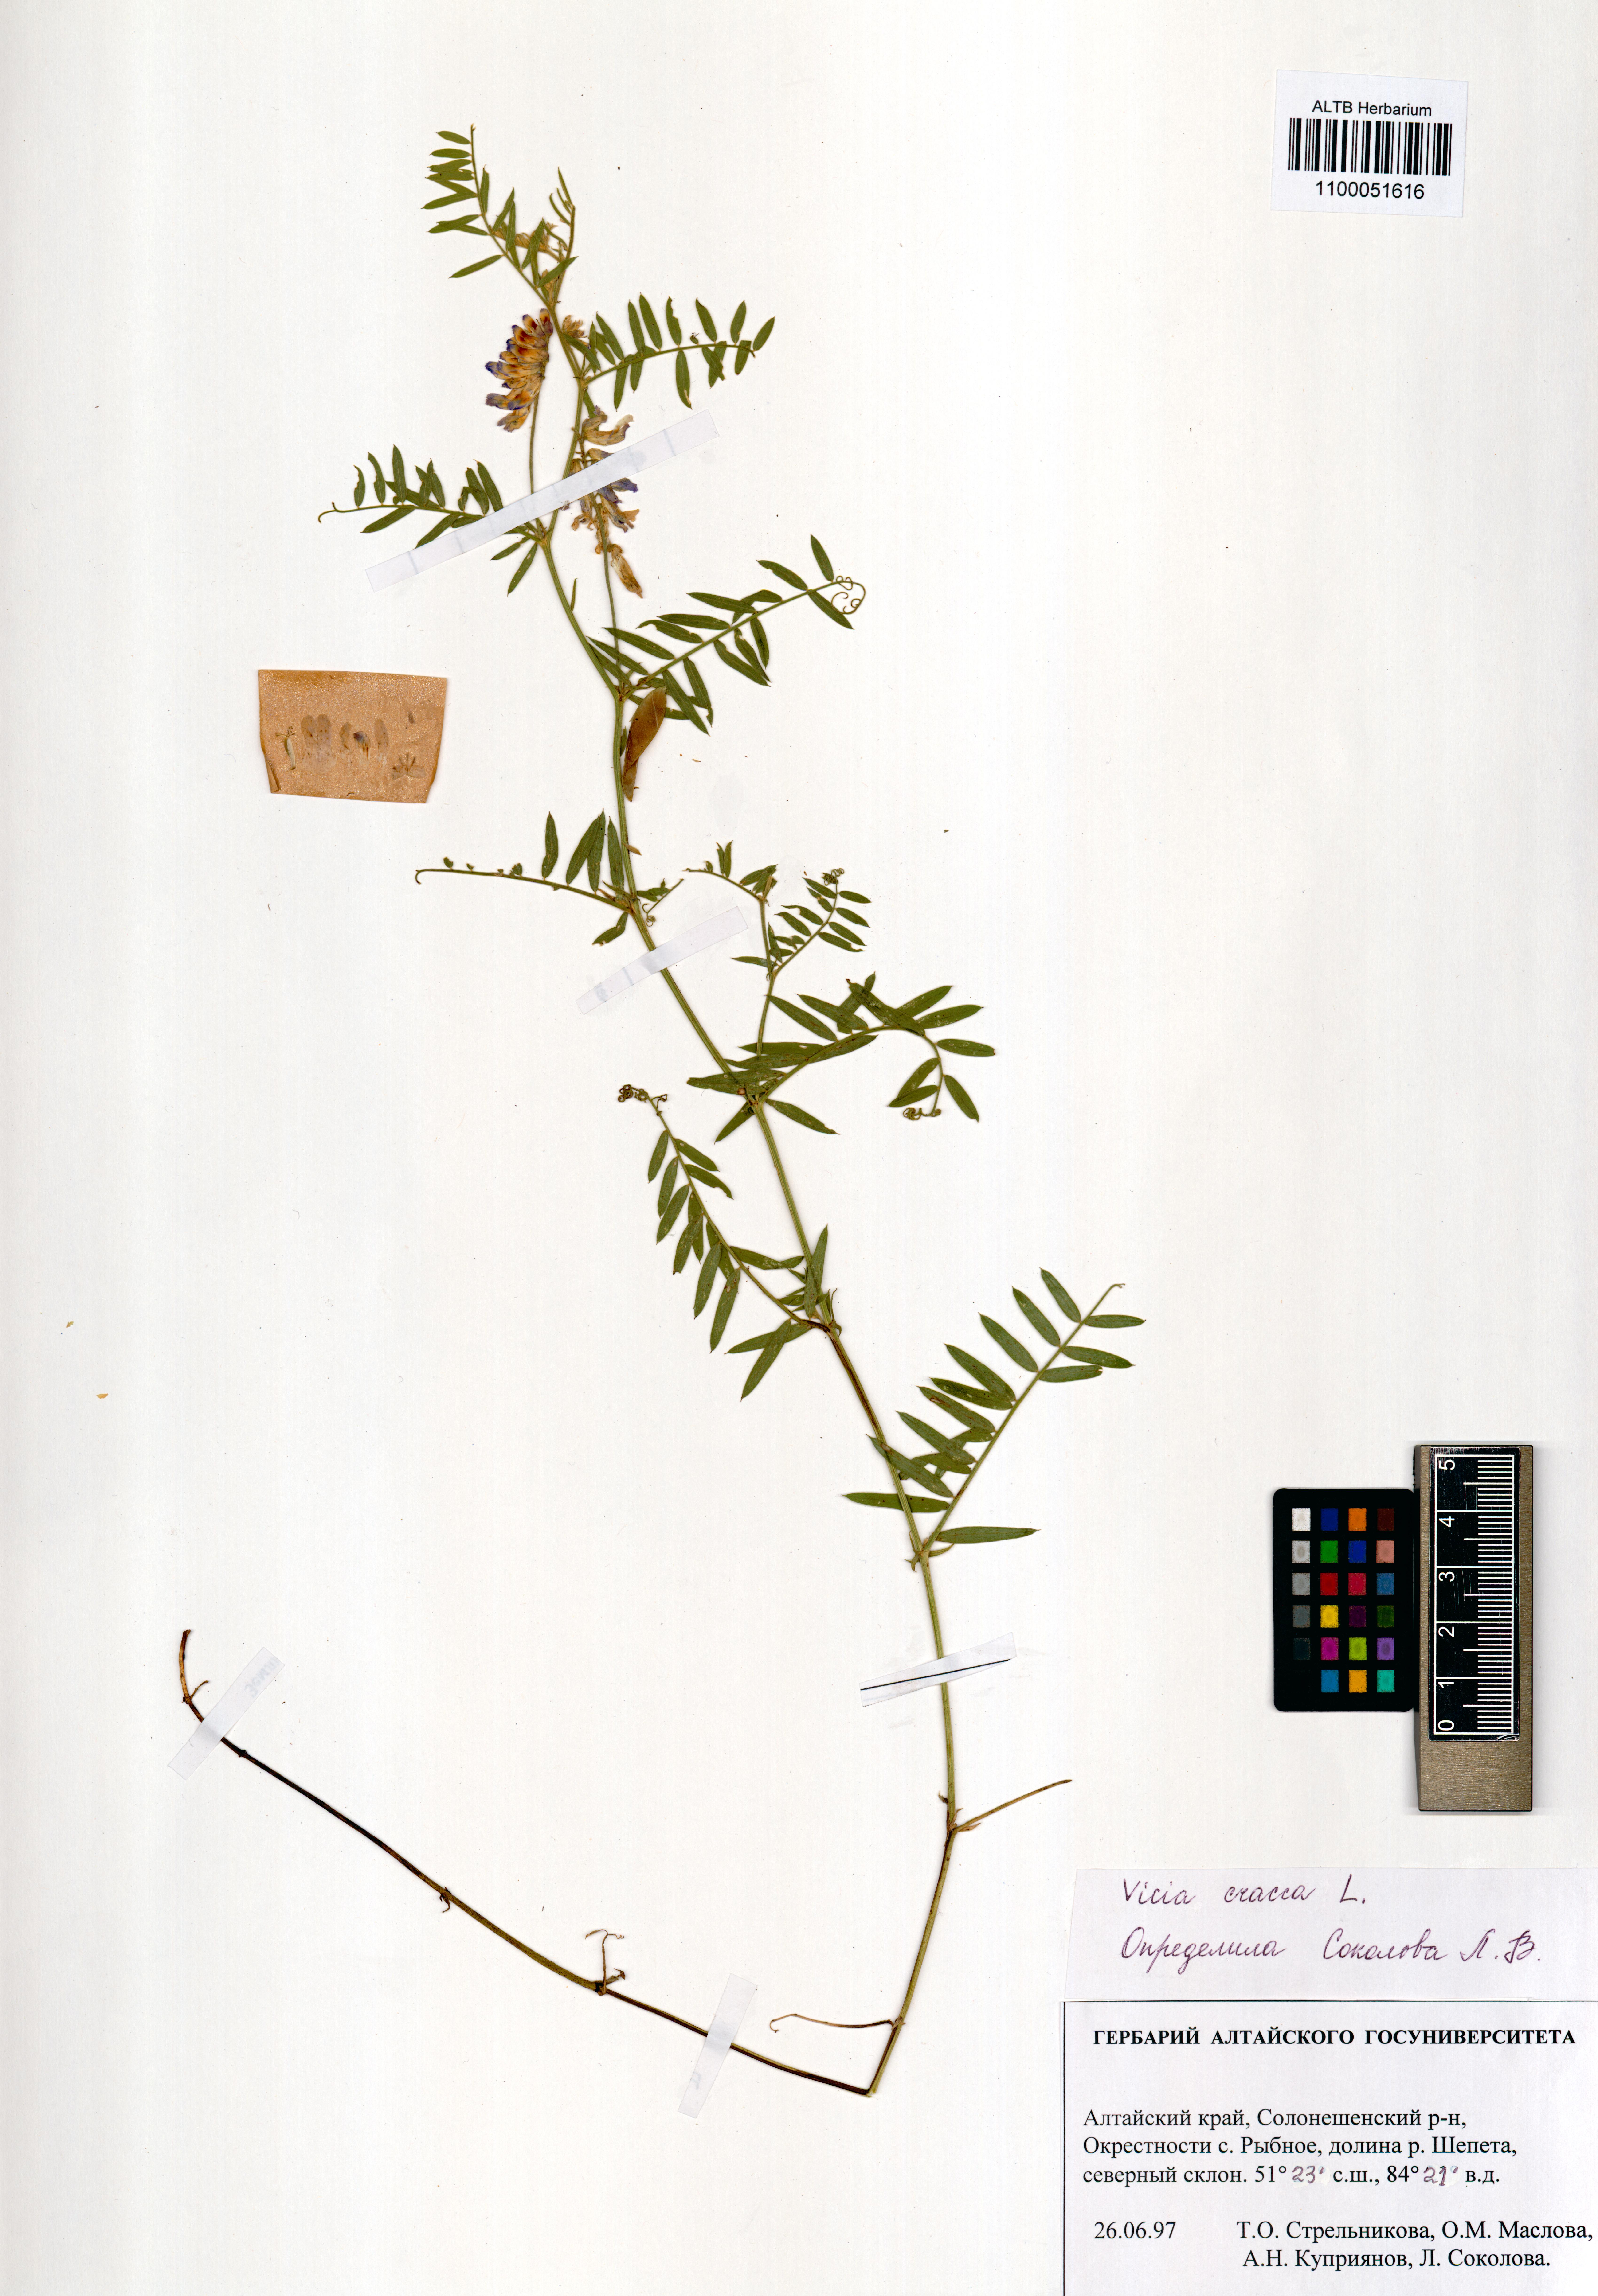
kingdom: Plantae
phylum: Tracheophyta
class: Magnoliopsida
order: Fabales
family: Fabaceae
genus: Vicia
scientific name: Vicia cracca
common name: Bird vetch
